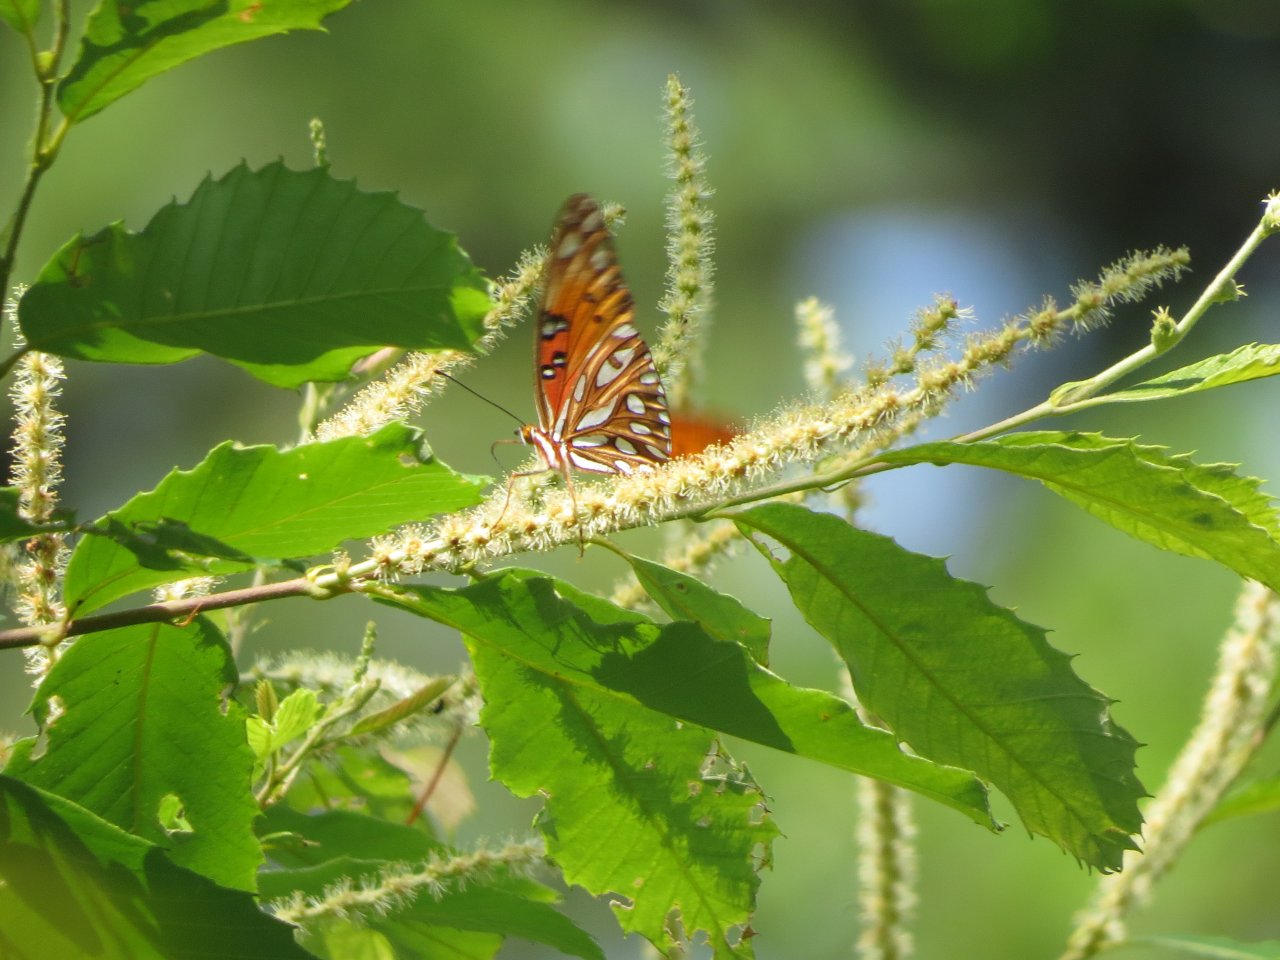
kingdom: Animalia
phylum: Arthropoda
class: Insecta
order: Lepidoptera
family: Nymphalidae
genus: Dione
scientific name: Dione vanillae
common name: Gulf Fritillary
